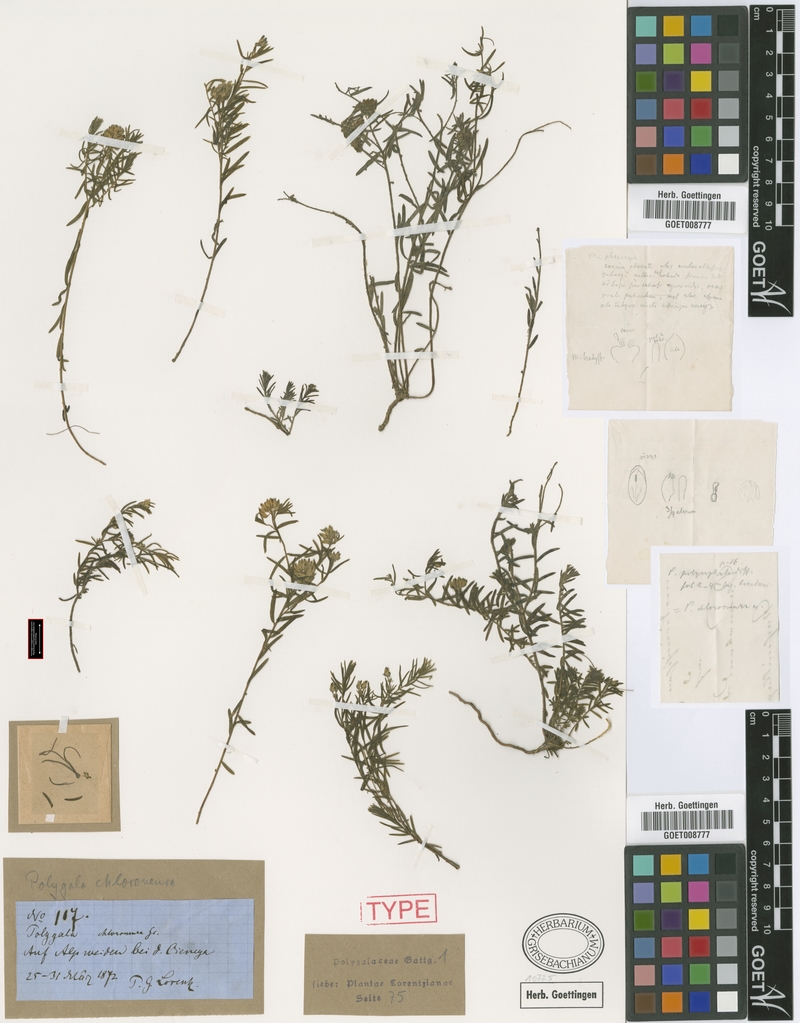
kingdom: Plantae
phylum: Tracheophyta
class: Magnoliopsida
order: Fabales
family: Polygalaceae
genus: Polygala
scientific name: Polygala subandina
